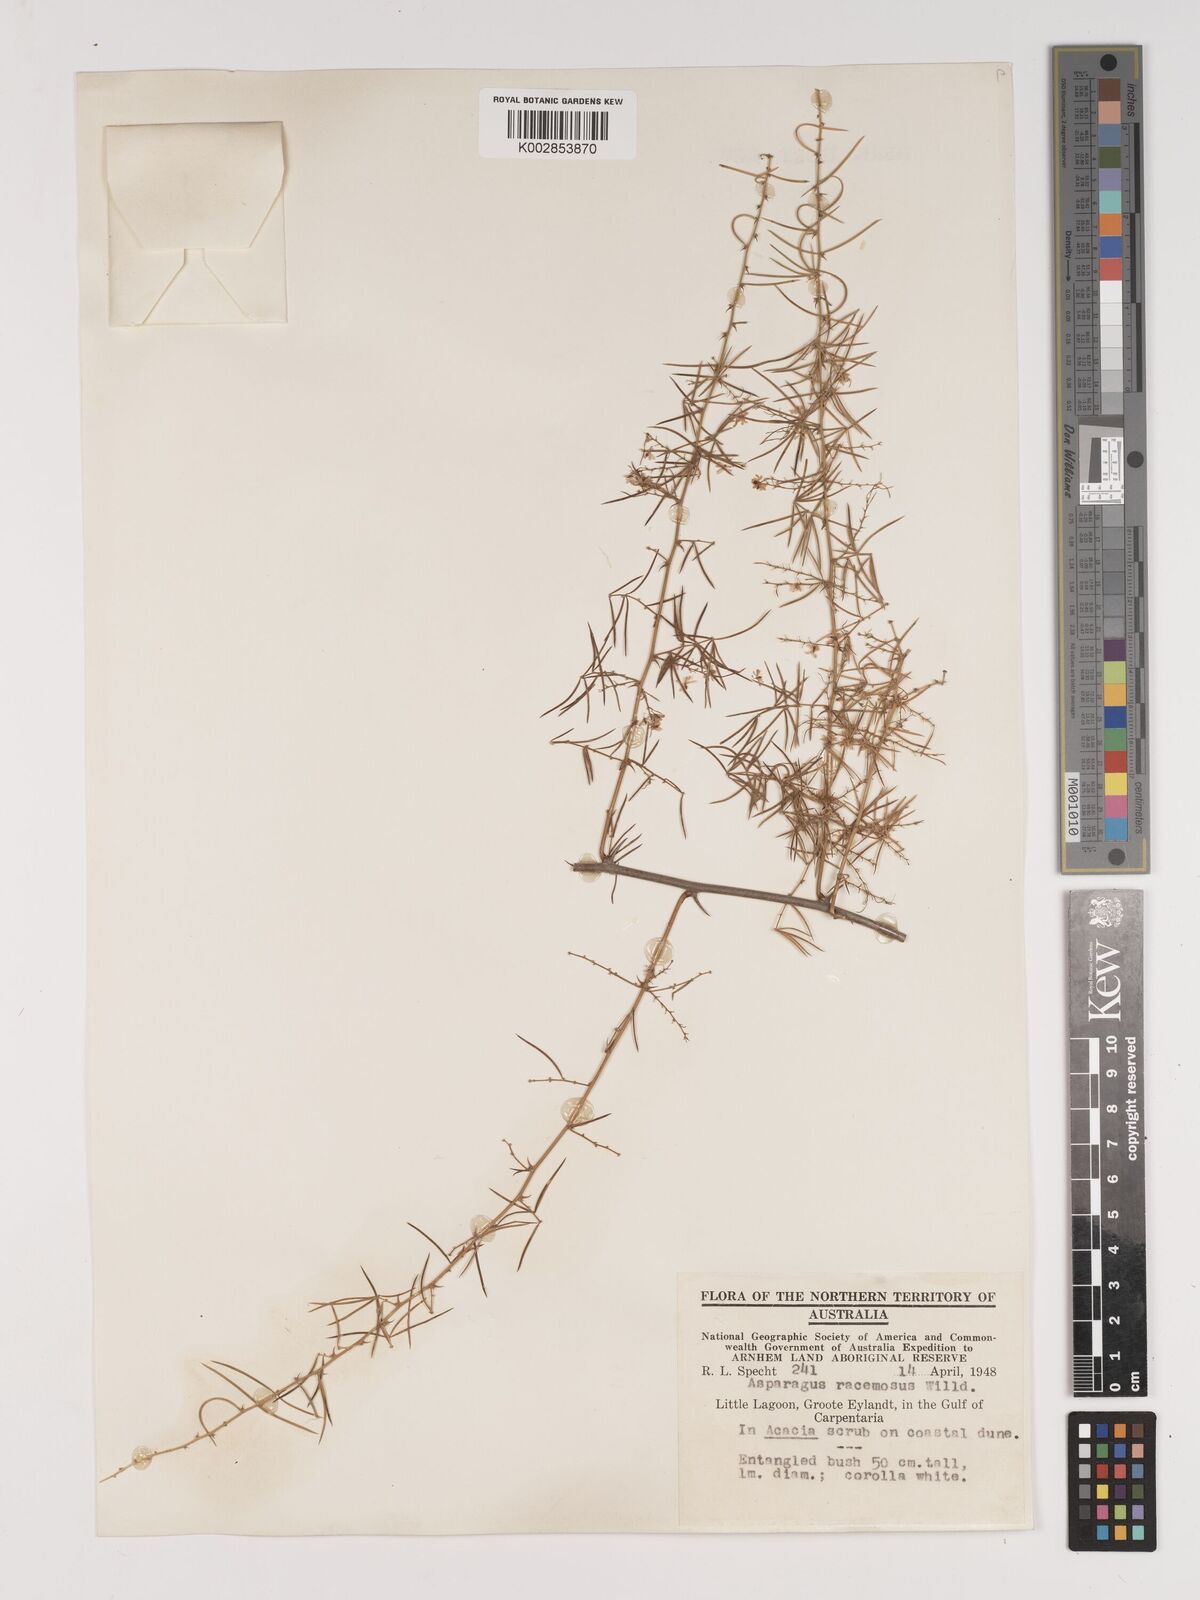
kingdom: Plantae
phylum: Tracheophyta
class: Liliopsida
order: Asparagales
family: Asparagaceae
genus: Asparagus
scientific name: Asparagus racemosus
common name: Asparagus-fern
